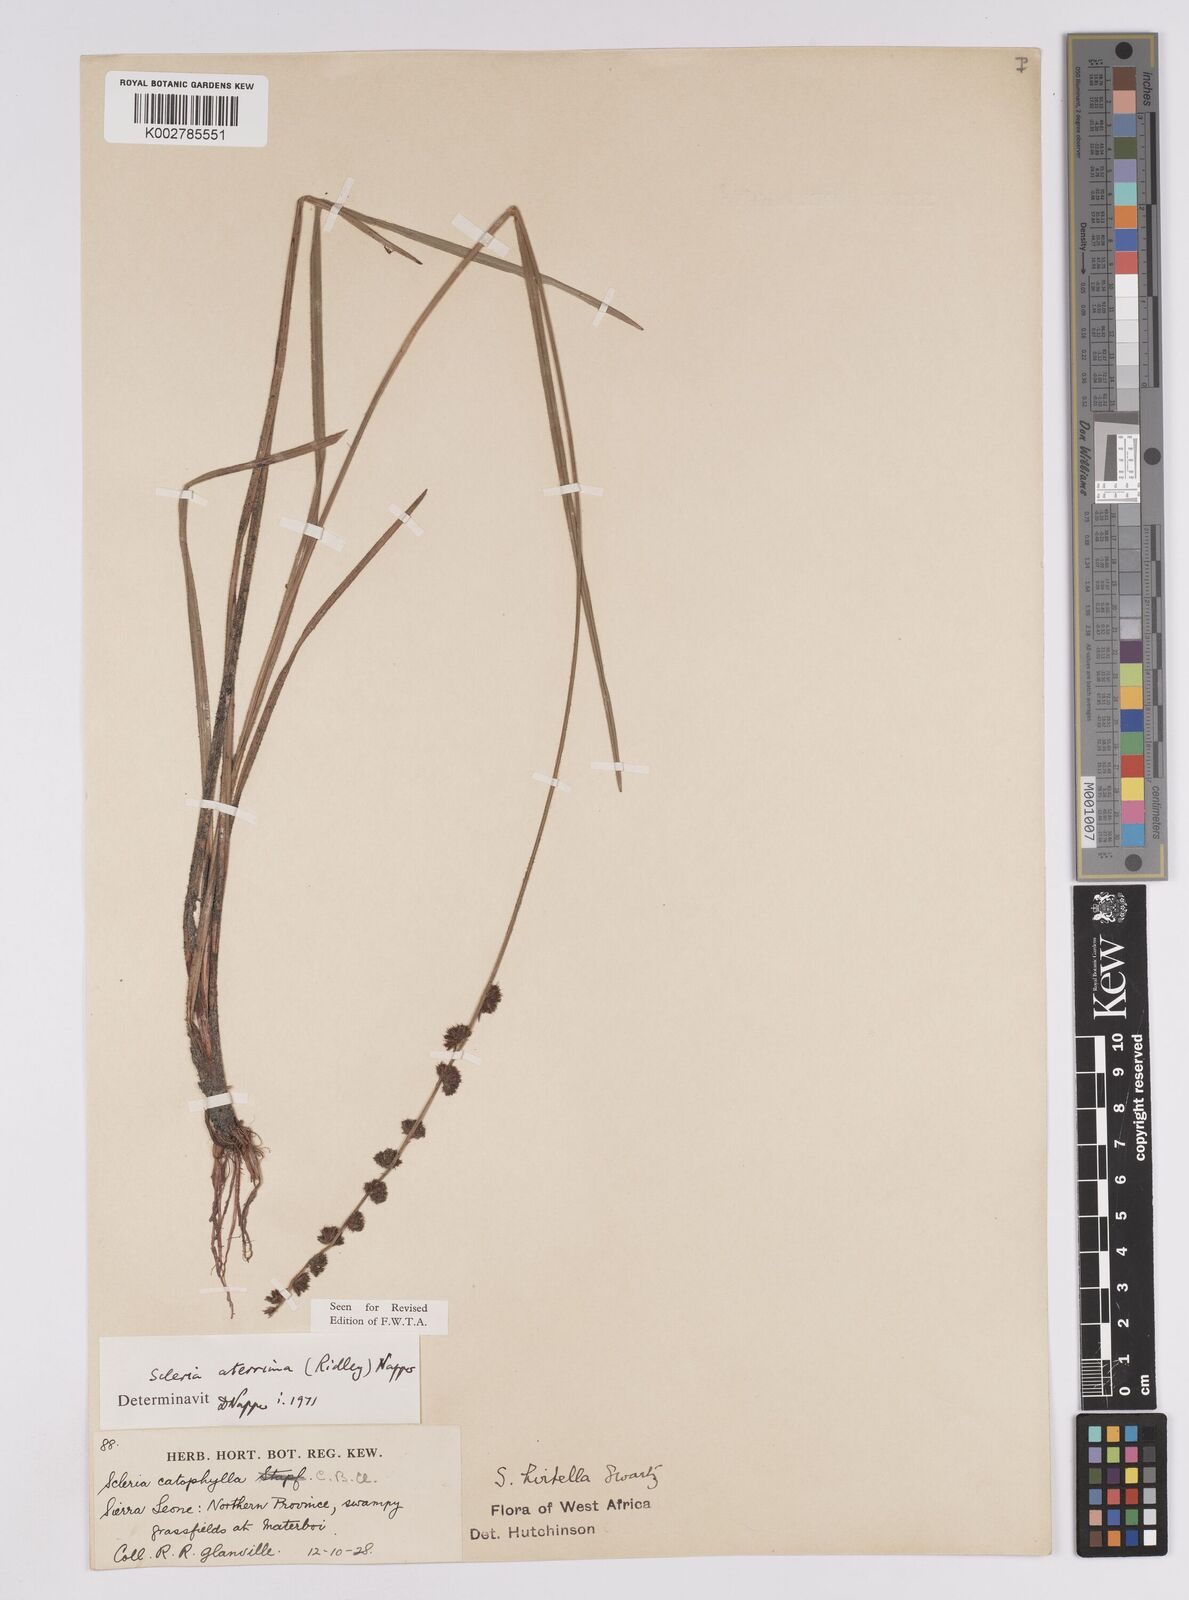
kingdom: Plantae
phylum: Tracheophyta
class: Liliopsida
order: Poales
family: Cyperaceae
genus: Scleria
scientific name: Scleria catophylla
